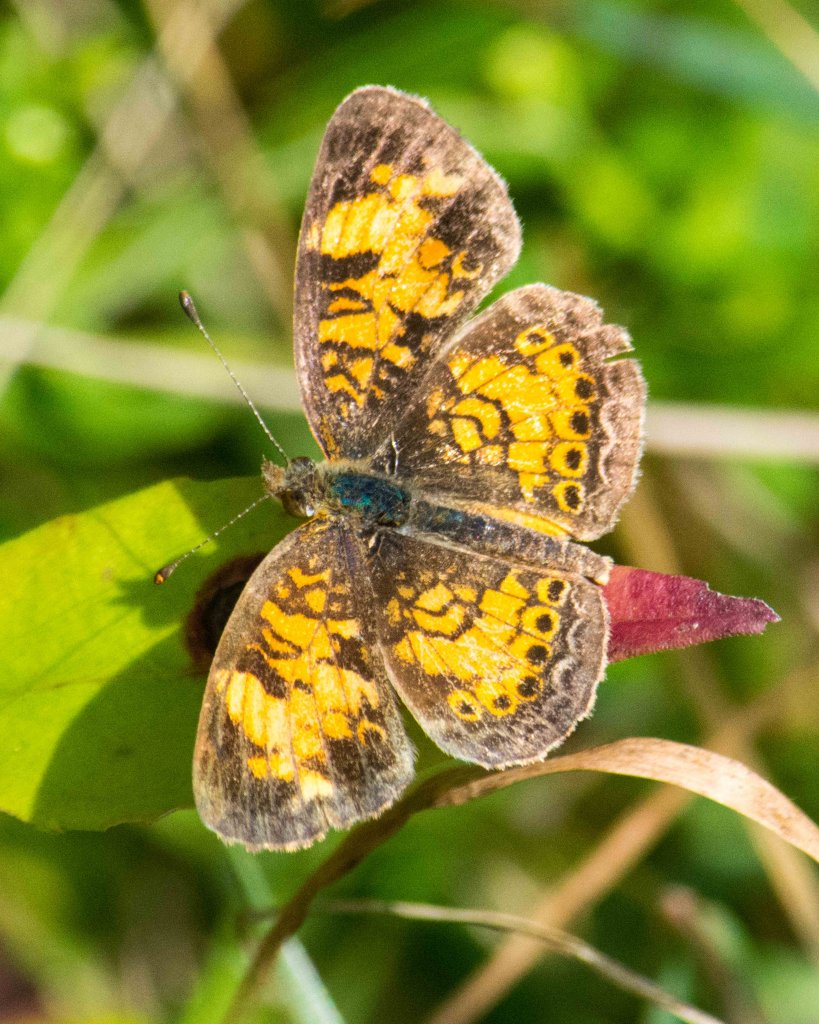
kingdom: Animalia
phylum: Arthropoda
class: Insecta
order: Lepidoptera
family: Nymphalidae
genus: Phyciodes
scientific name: Phyciodes tharos
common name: Pearl Crescent
